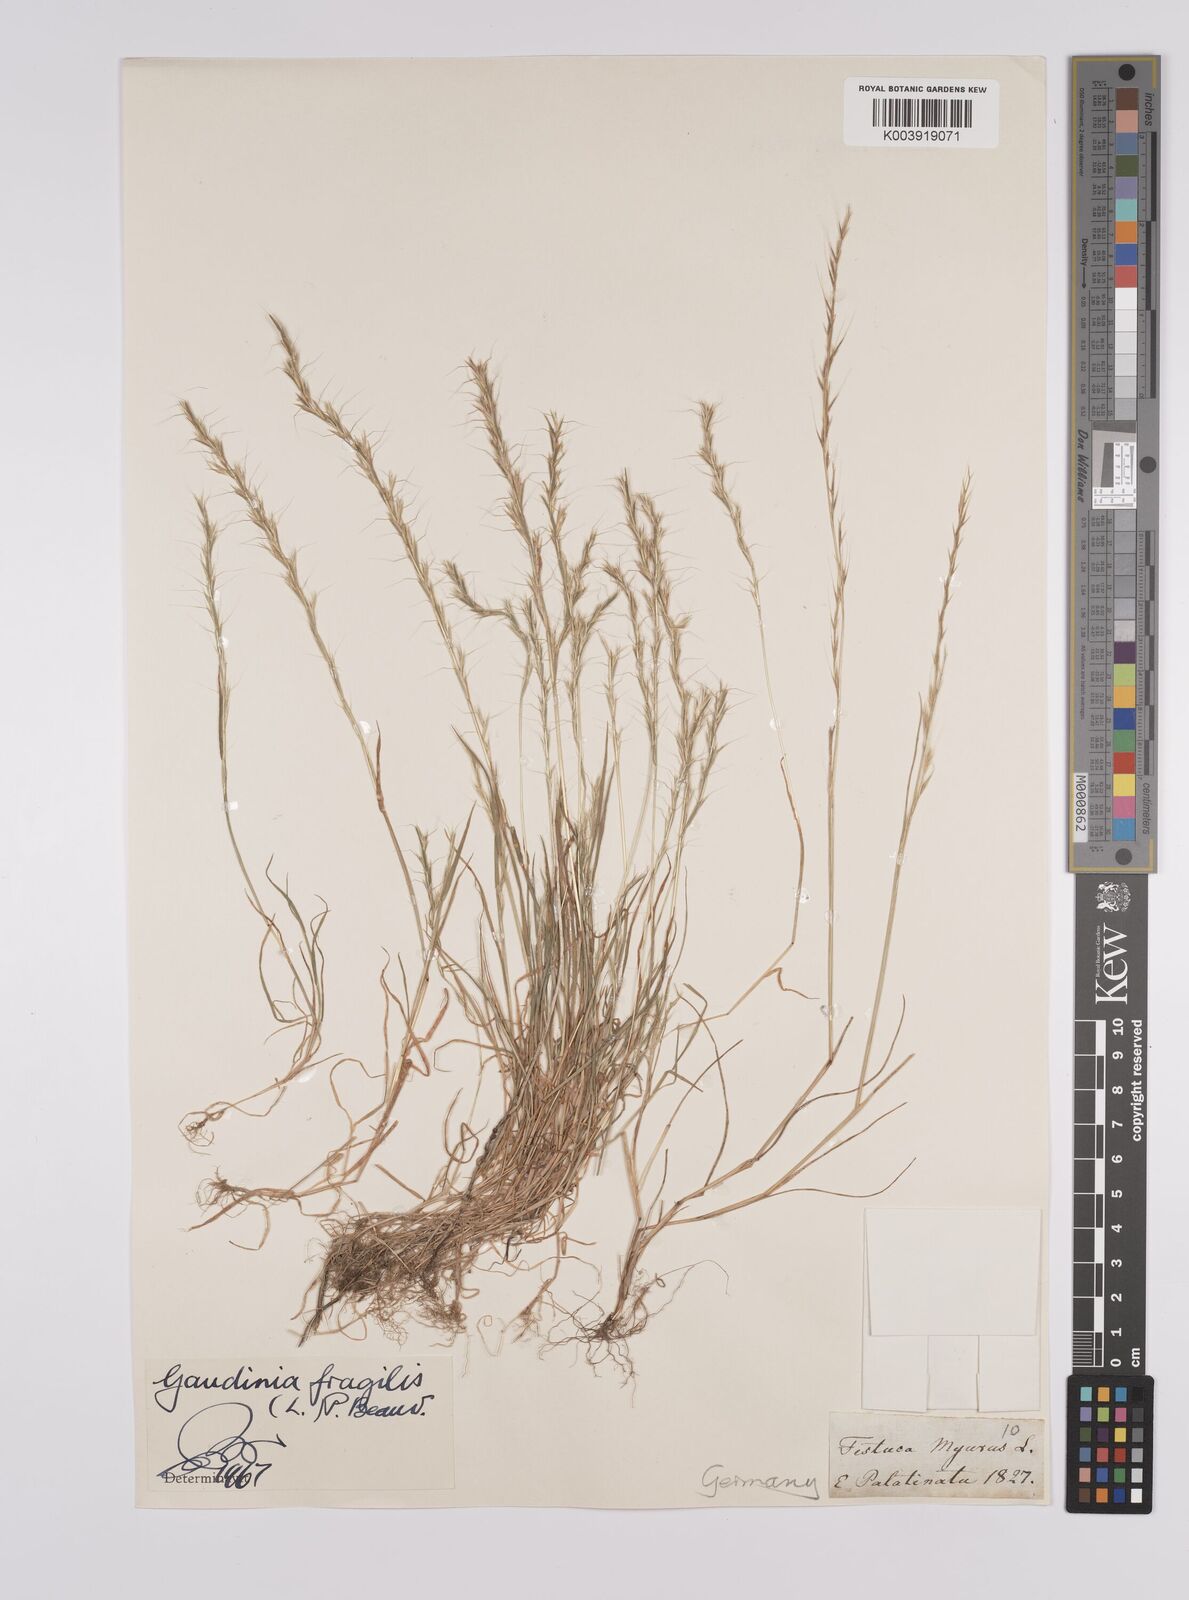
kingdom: Plantae
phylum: Tracheophyta
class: Liliopsida
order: Poales
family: Poaceae
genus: Gaudinia
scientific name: Gaudinia fragilis
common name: French oat-grass
